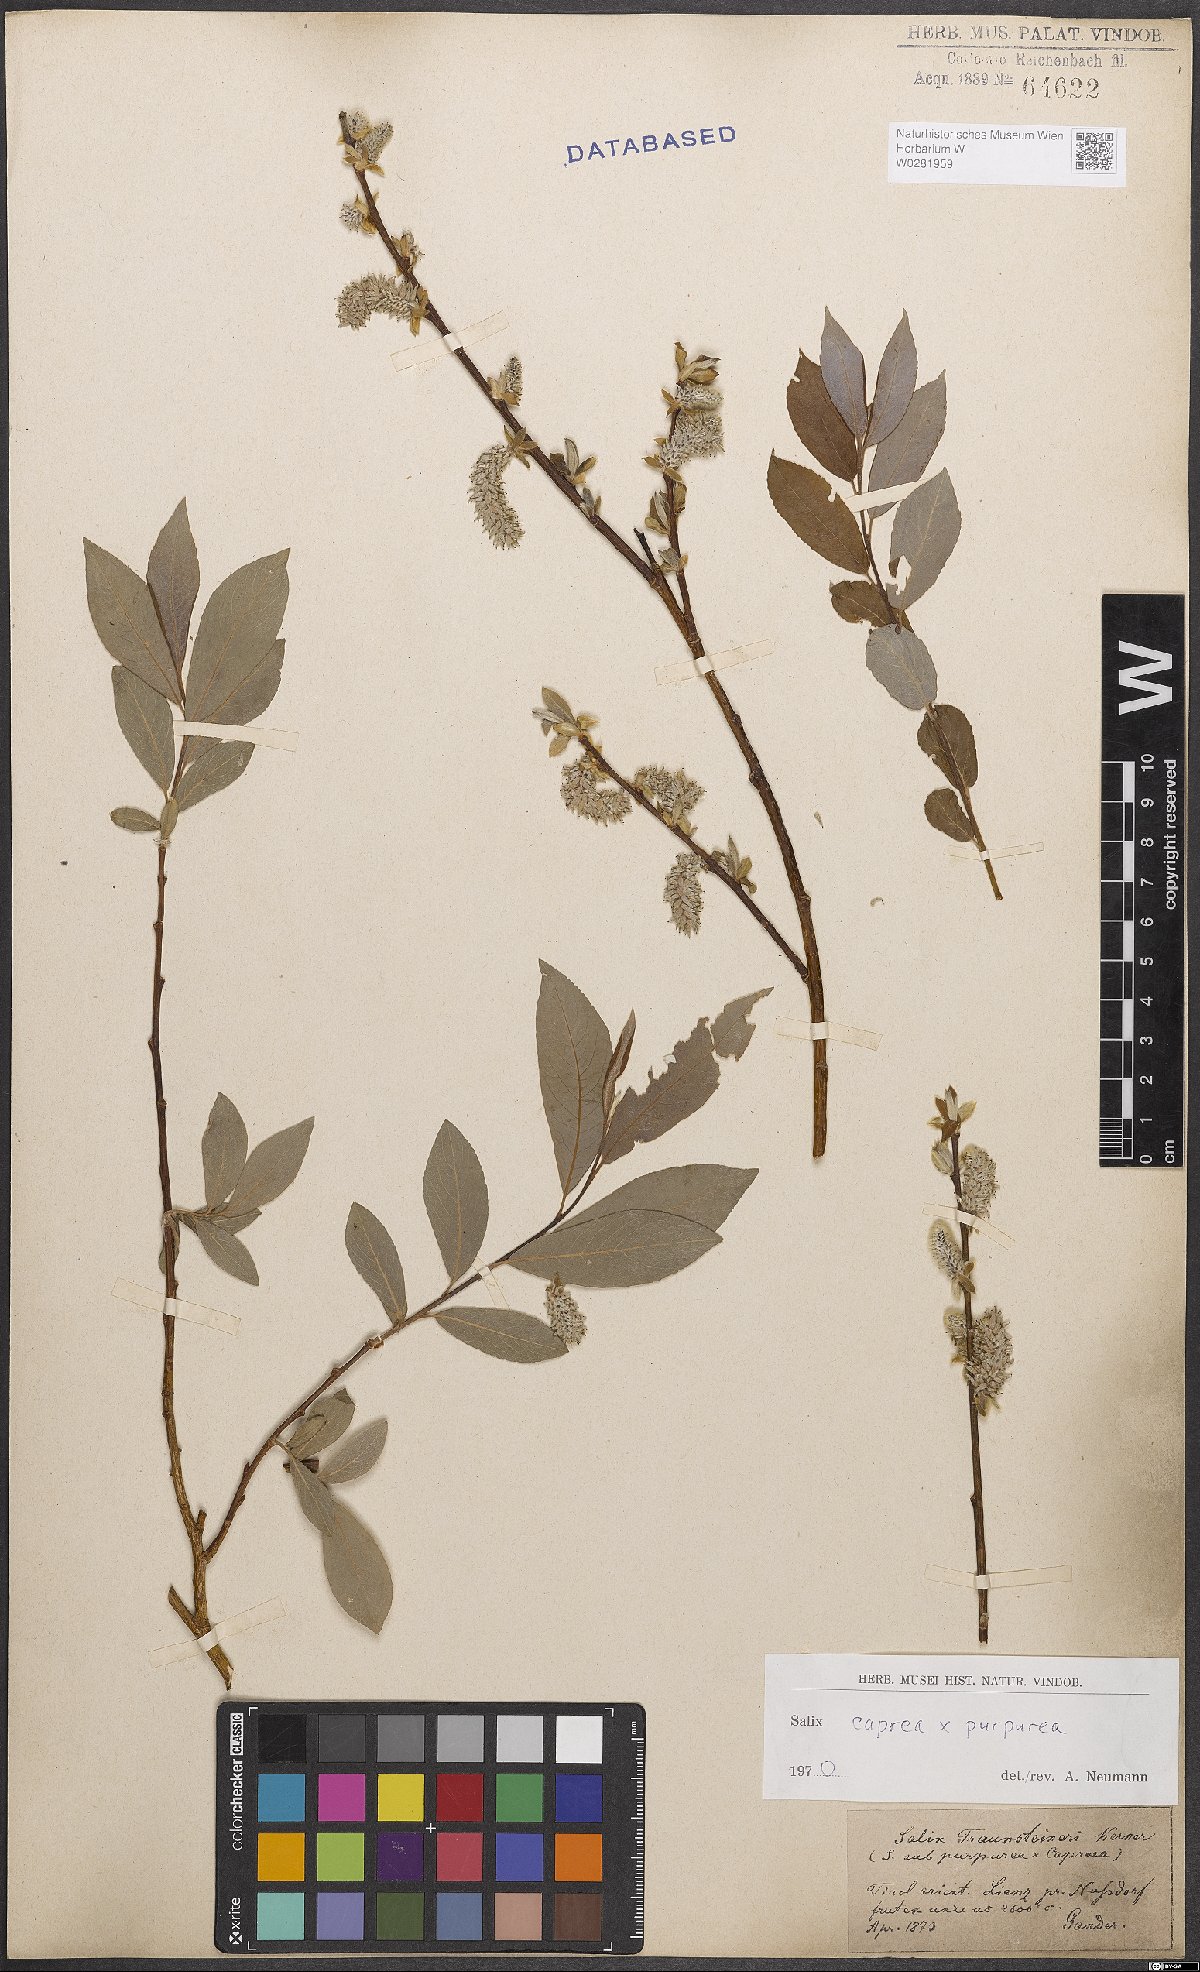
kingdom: Plantae
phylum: Tracheophyta
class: Magnoliopsida
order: Malpighiales
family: Salicaceae
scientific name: Salicaceae
